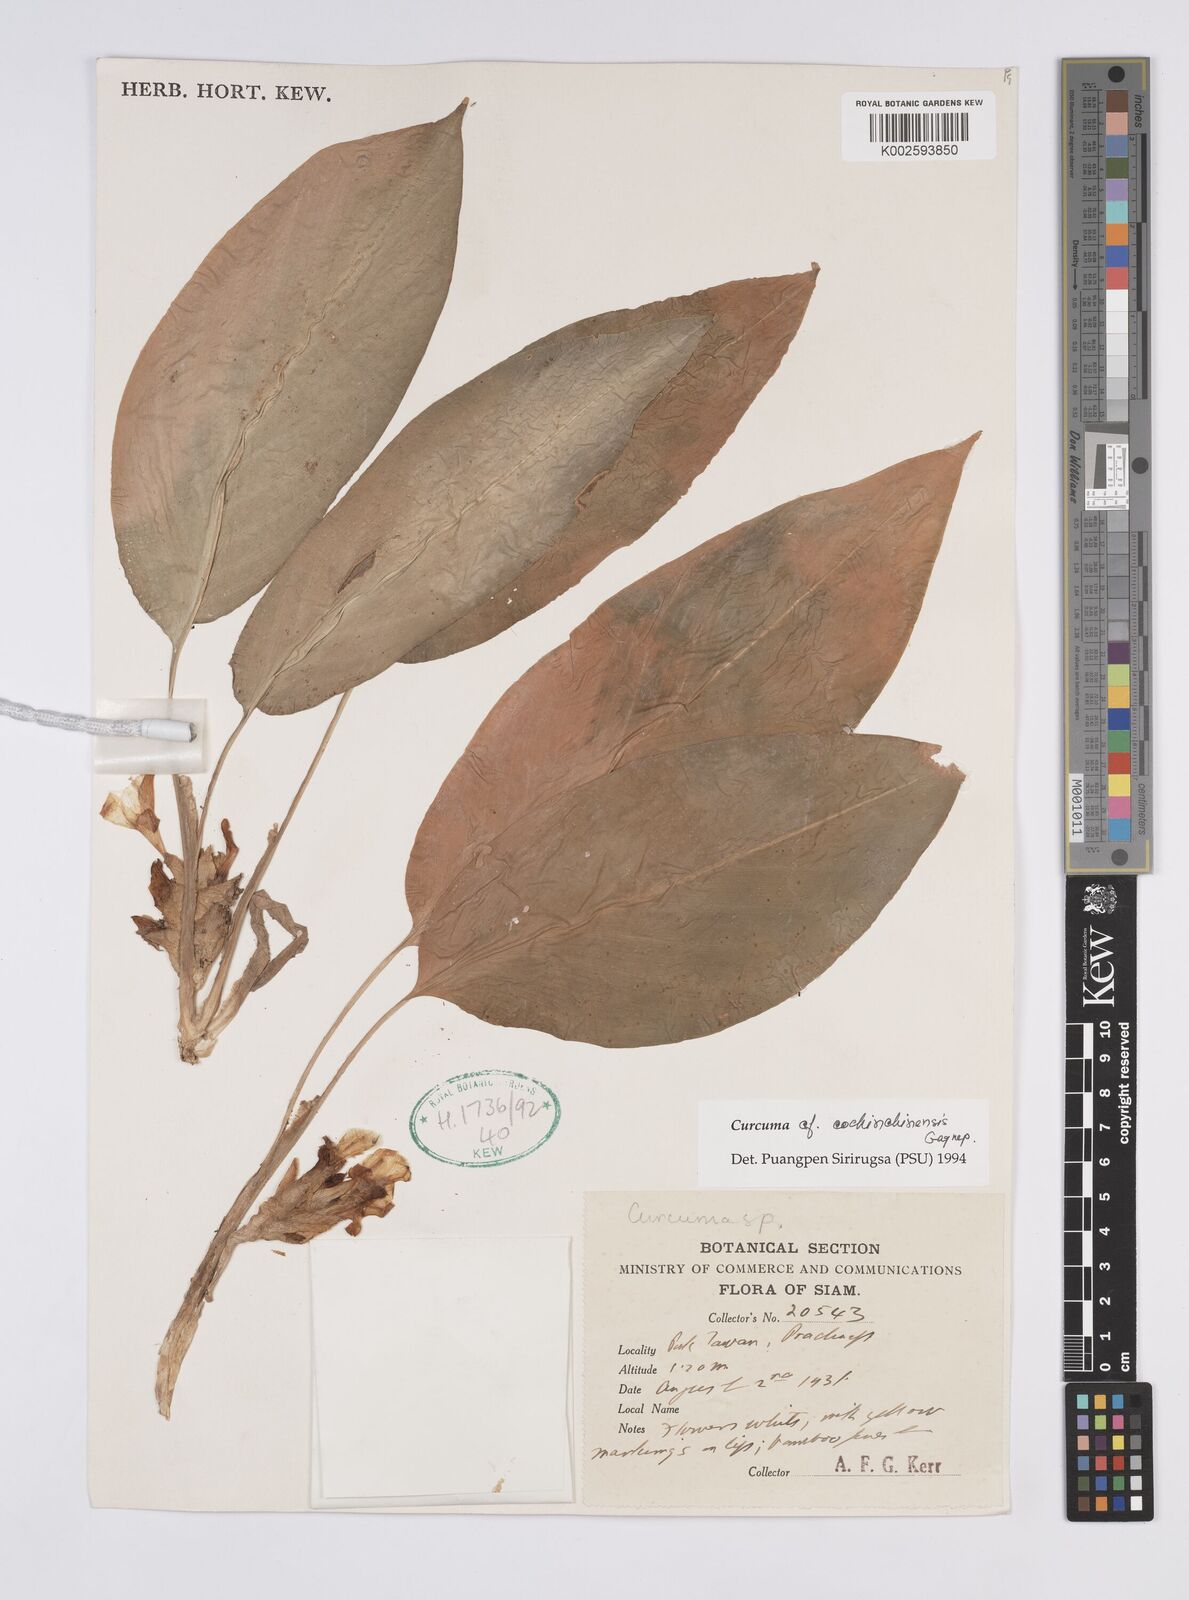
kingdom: Plantae
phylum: Tracheophyta
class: Liliopsida
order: Zingiberales
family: Zingiberaceae
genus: Curcuma
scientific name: Curcuma cochinchinensis
